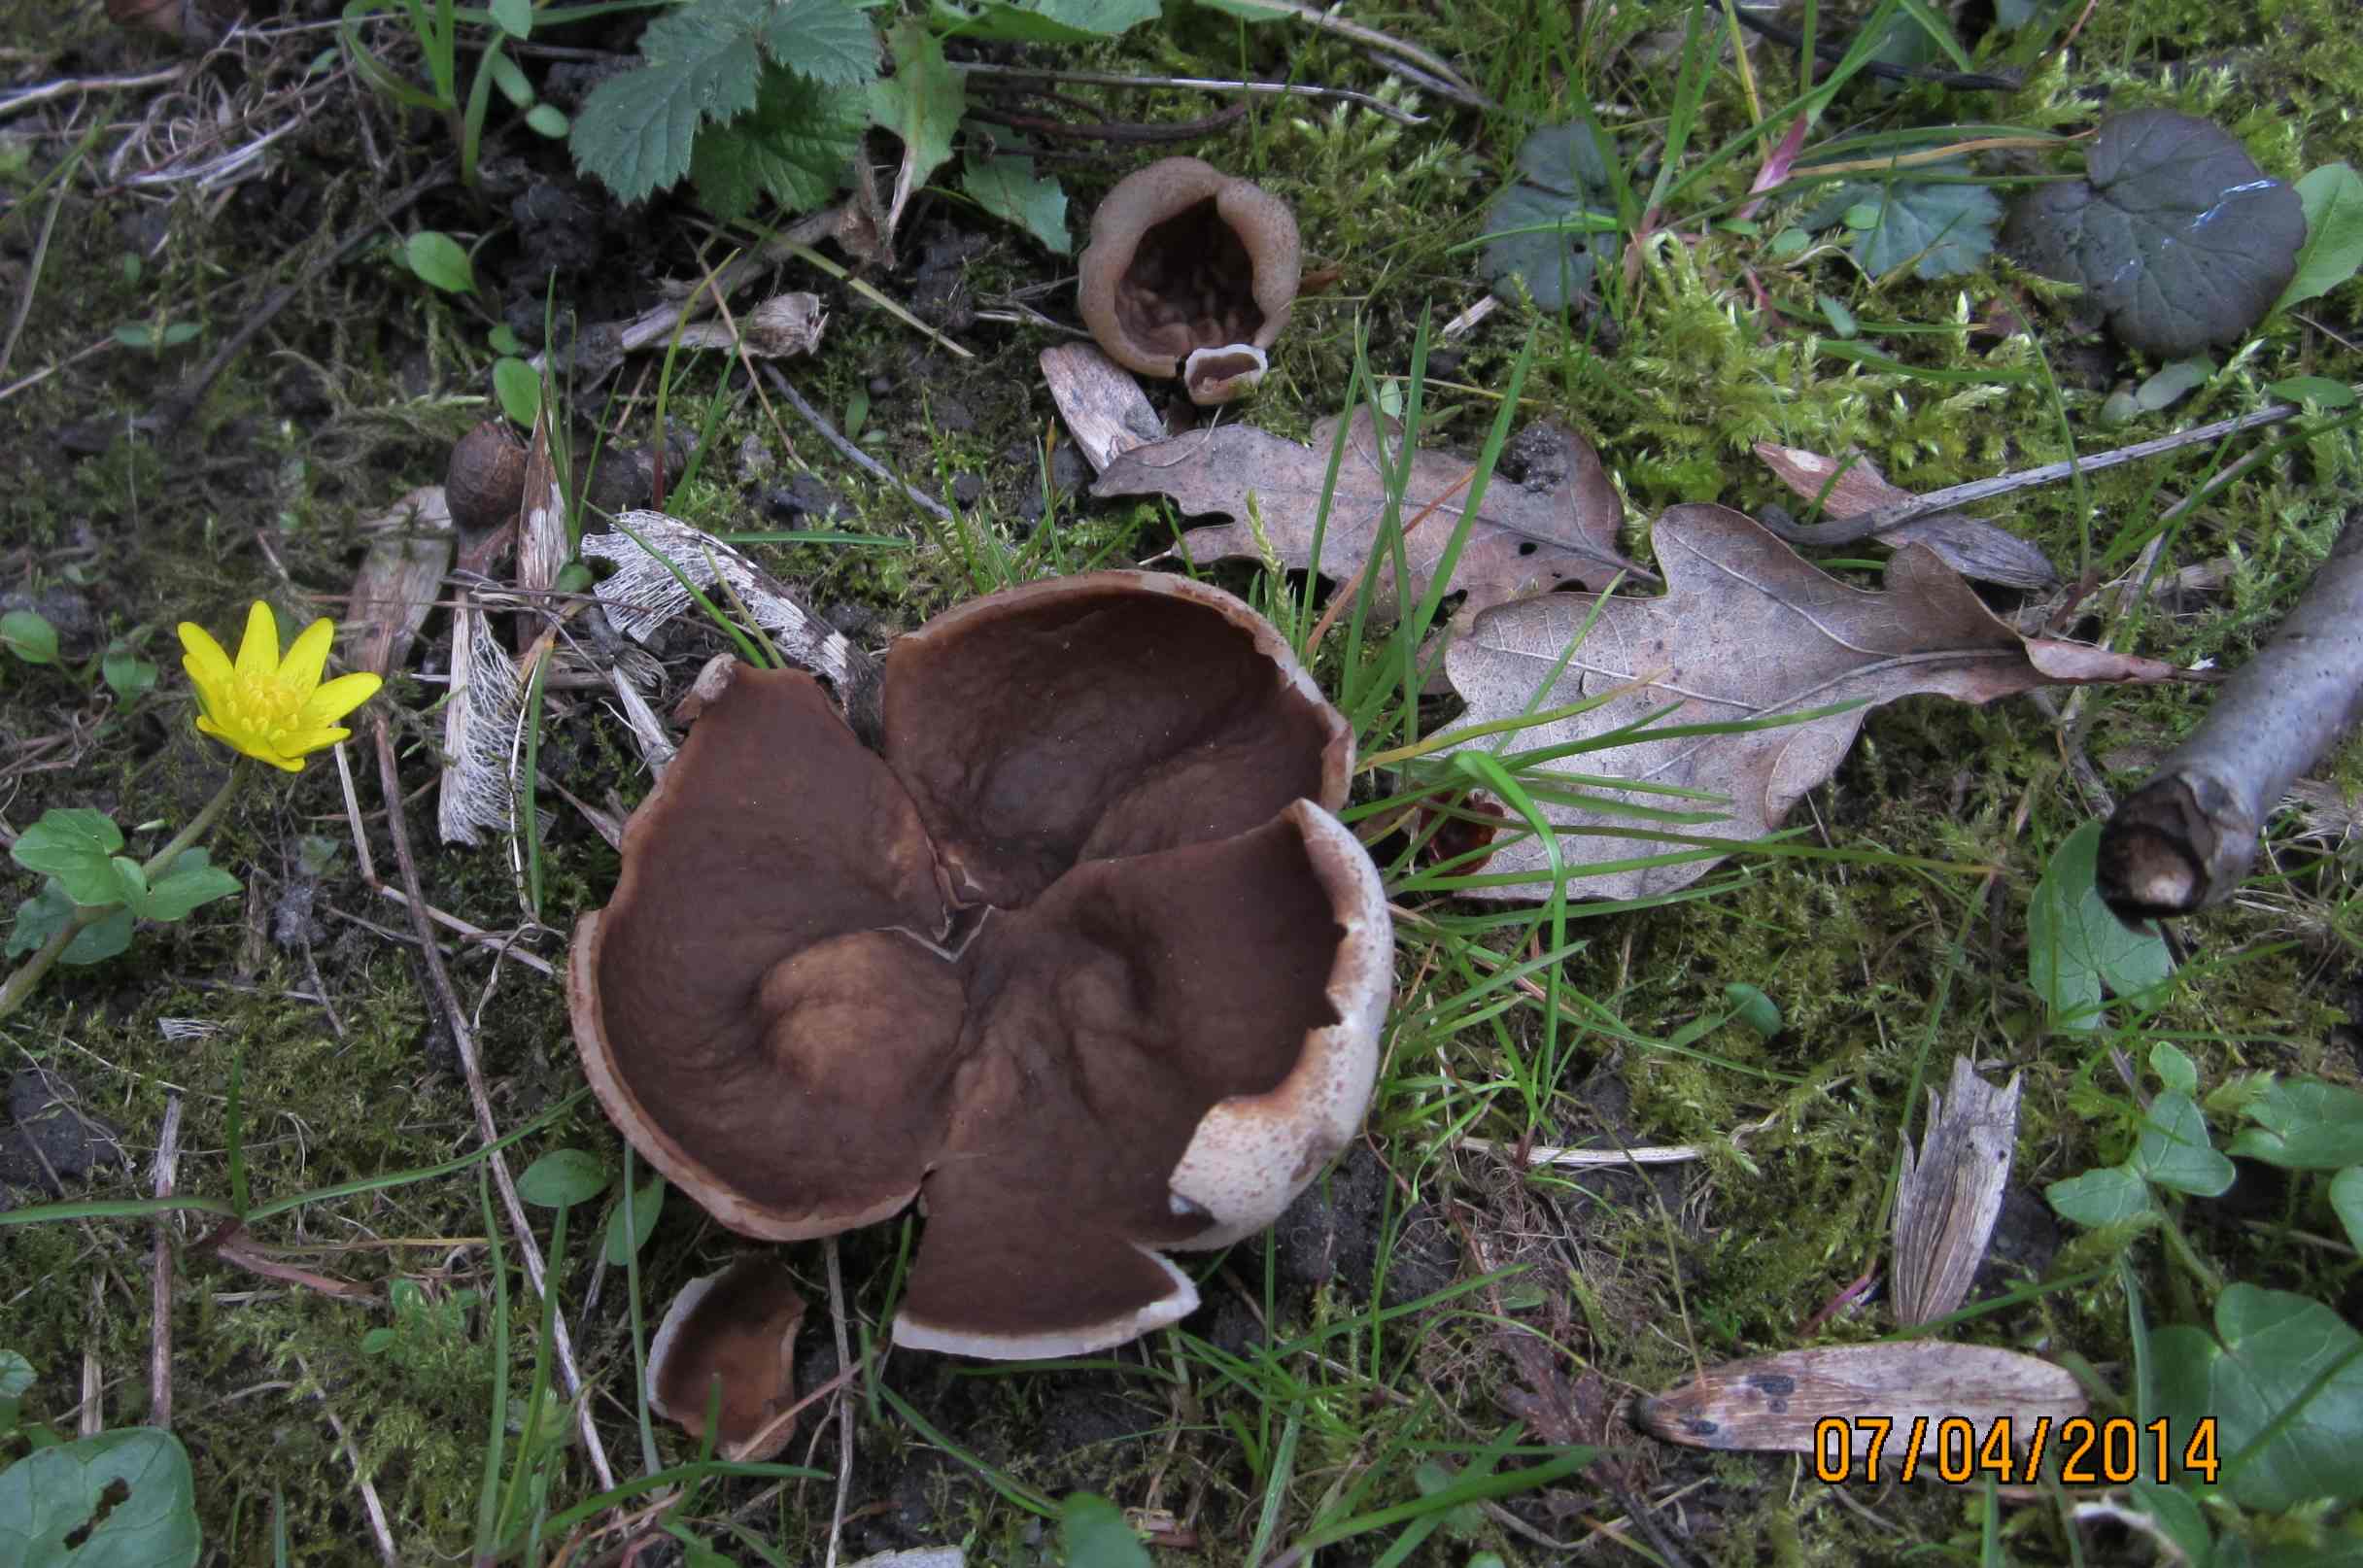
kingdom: Fungi
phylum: Ascomycota
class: Pezizomycetes
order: Pezizales
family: Morchellaceae
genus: Disciotis
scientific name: Disciotis venosa
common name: klor-bægermorkel
